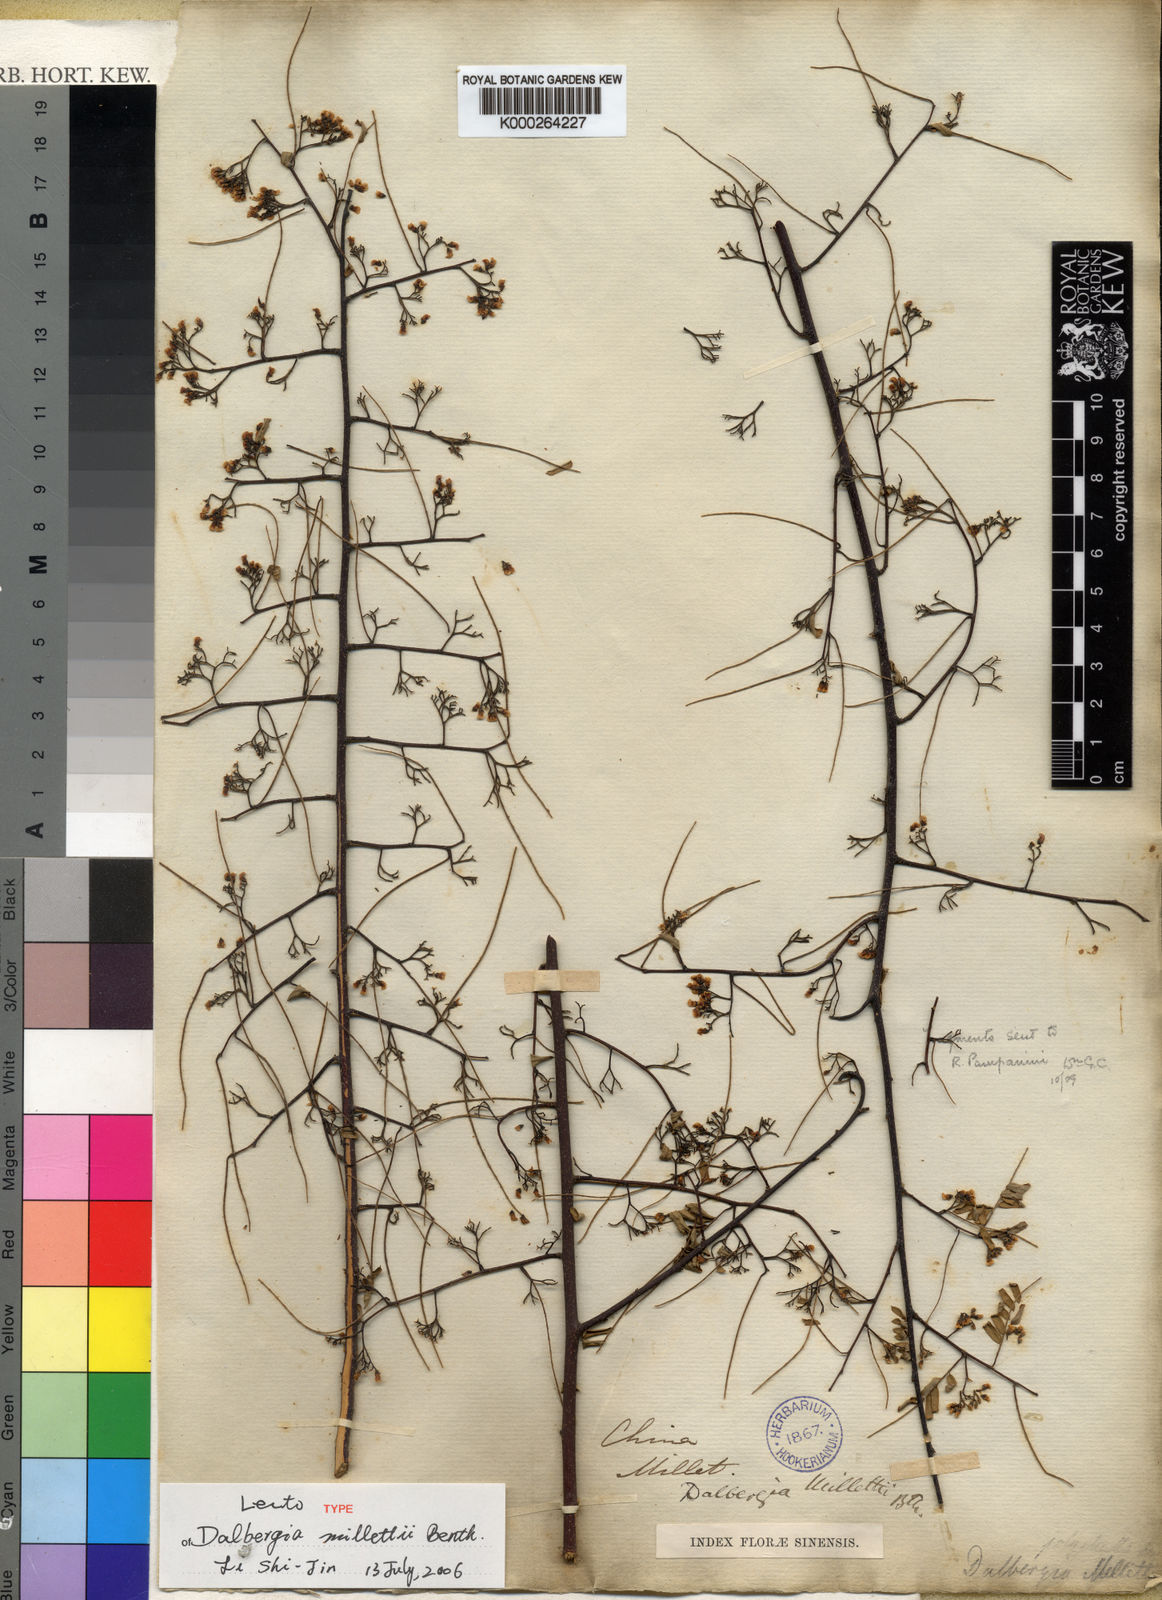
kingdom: Plantae
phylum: Tracheophyta
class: Magnoliopsida
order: Fabales
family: Fabaceae
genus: Dalbergia
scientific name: Dalbergia millettii
